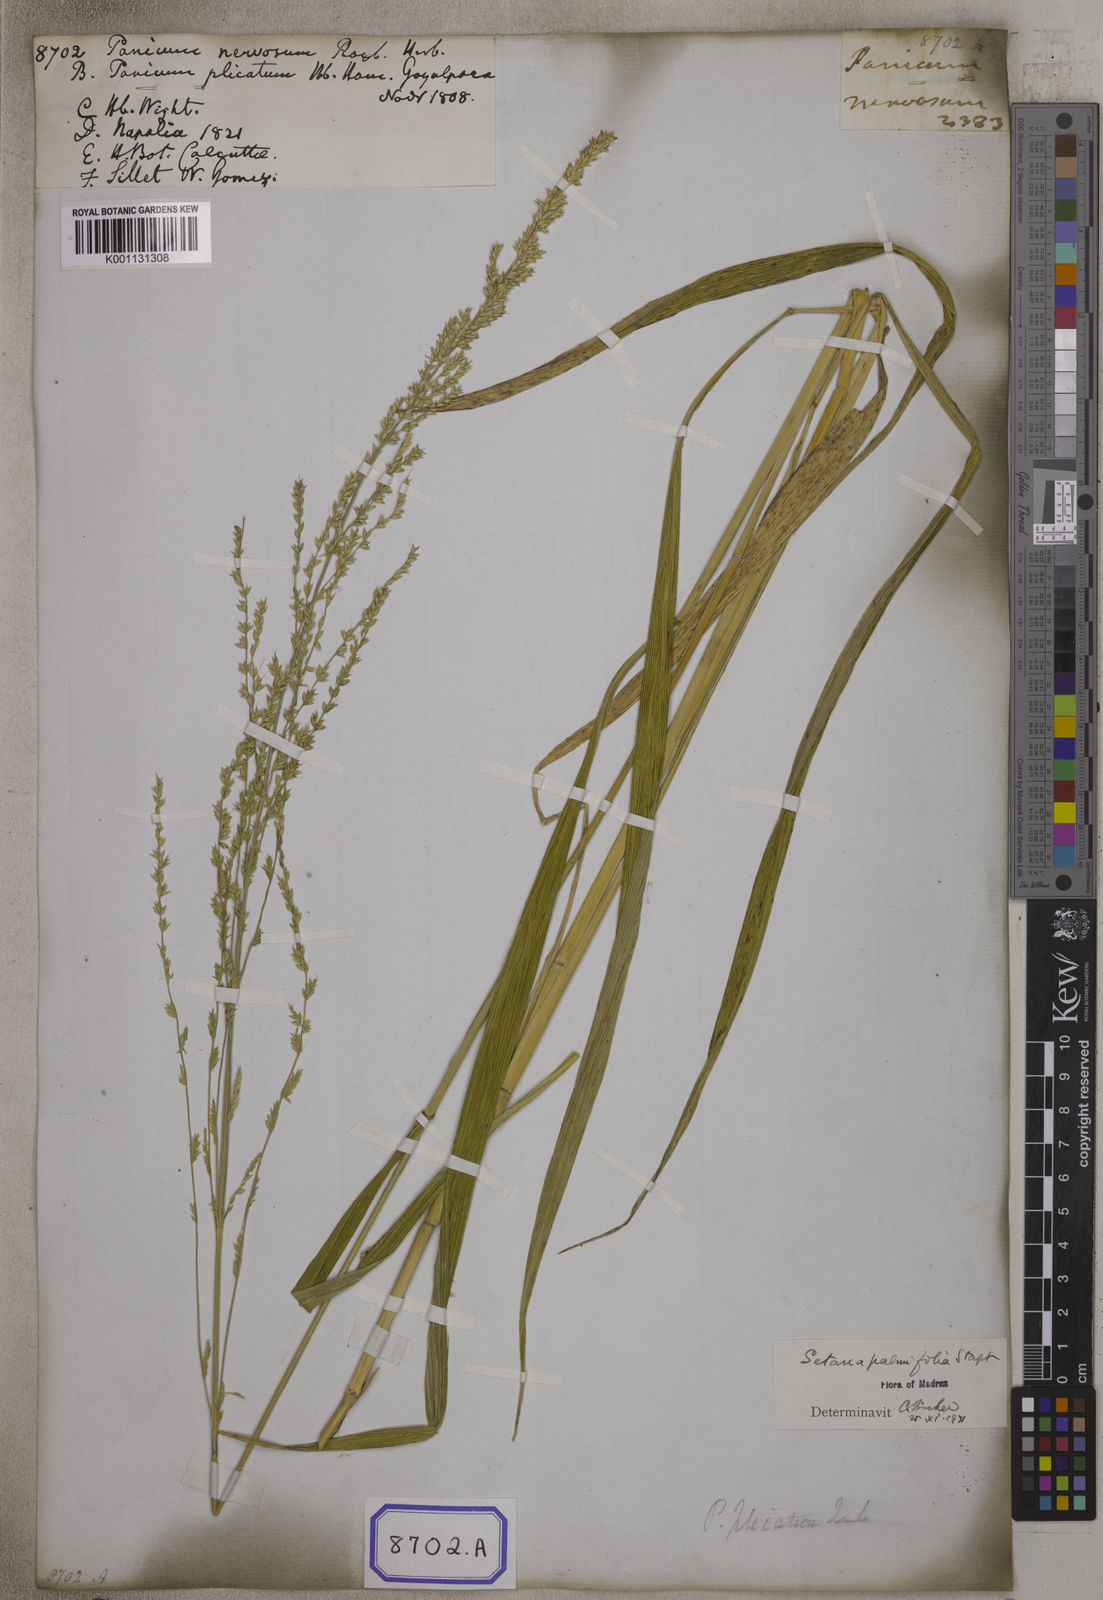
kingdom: Plantae
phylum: Tracheophyta
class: Liliopsida
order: Poales
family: Poaceae
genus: Setaria
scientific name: Setaria palmifolia
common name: Broadleaved bristlegrass
